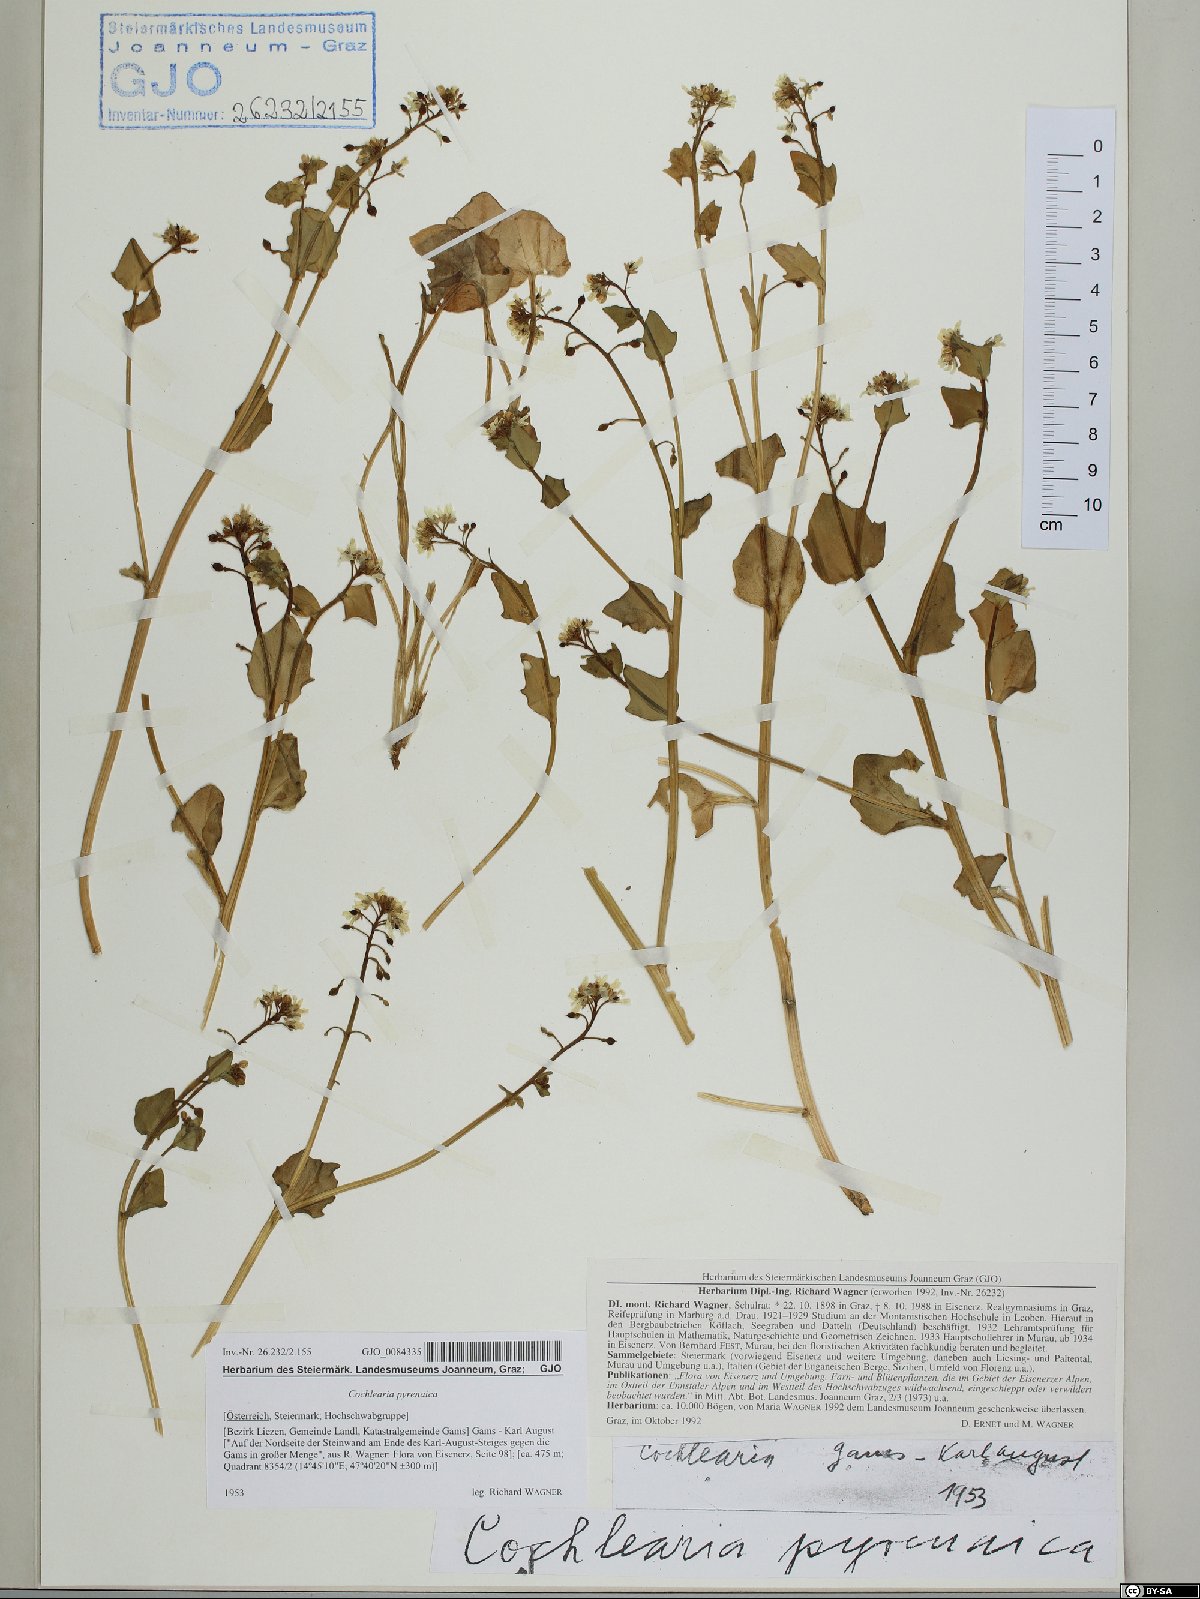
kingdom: Plantae
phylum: Tracheophyta
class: Magnoliopsida
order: Brassicales
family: Brassicaceae
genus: Cochlearia
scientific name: Cochlearia pyrenaica
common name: Upland scurvy-grass
